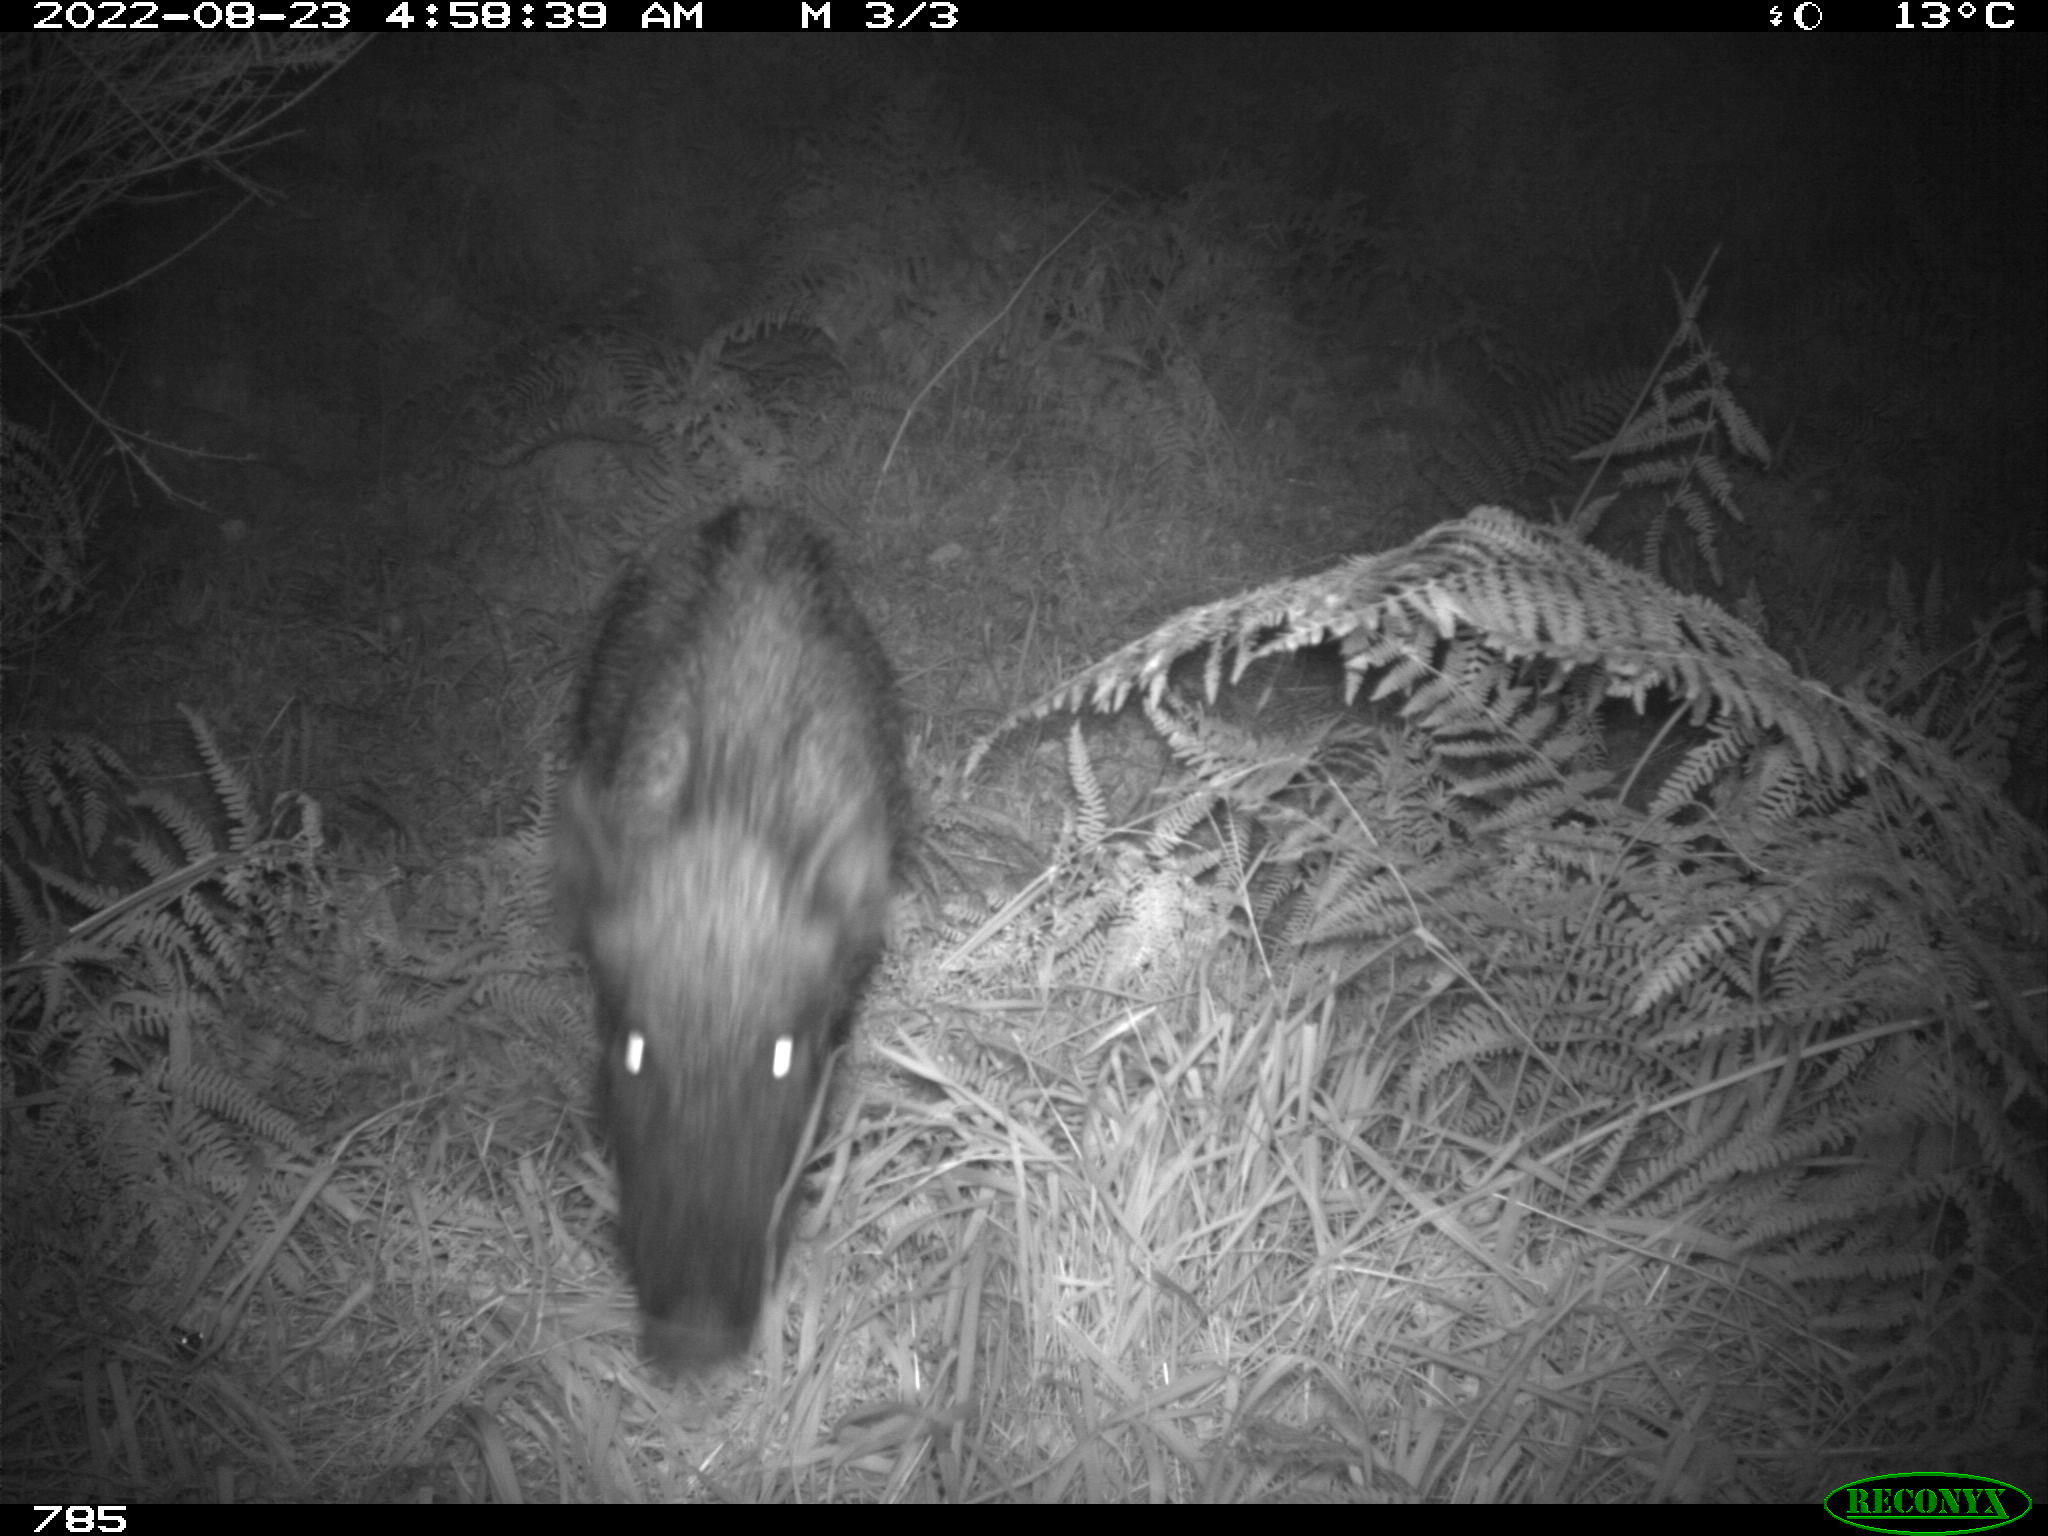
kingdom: Animalia
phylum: Chordata
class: Mammalia
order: Artiodactyla
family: Suidae
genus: Sus
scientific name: Sus scrofa
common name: Wild boar
